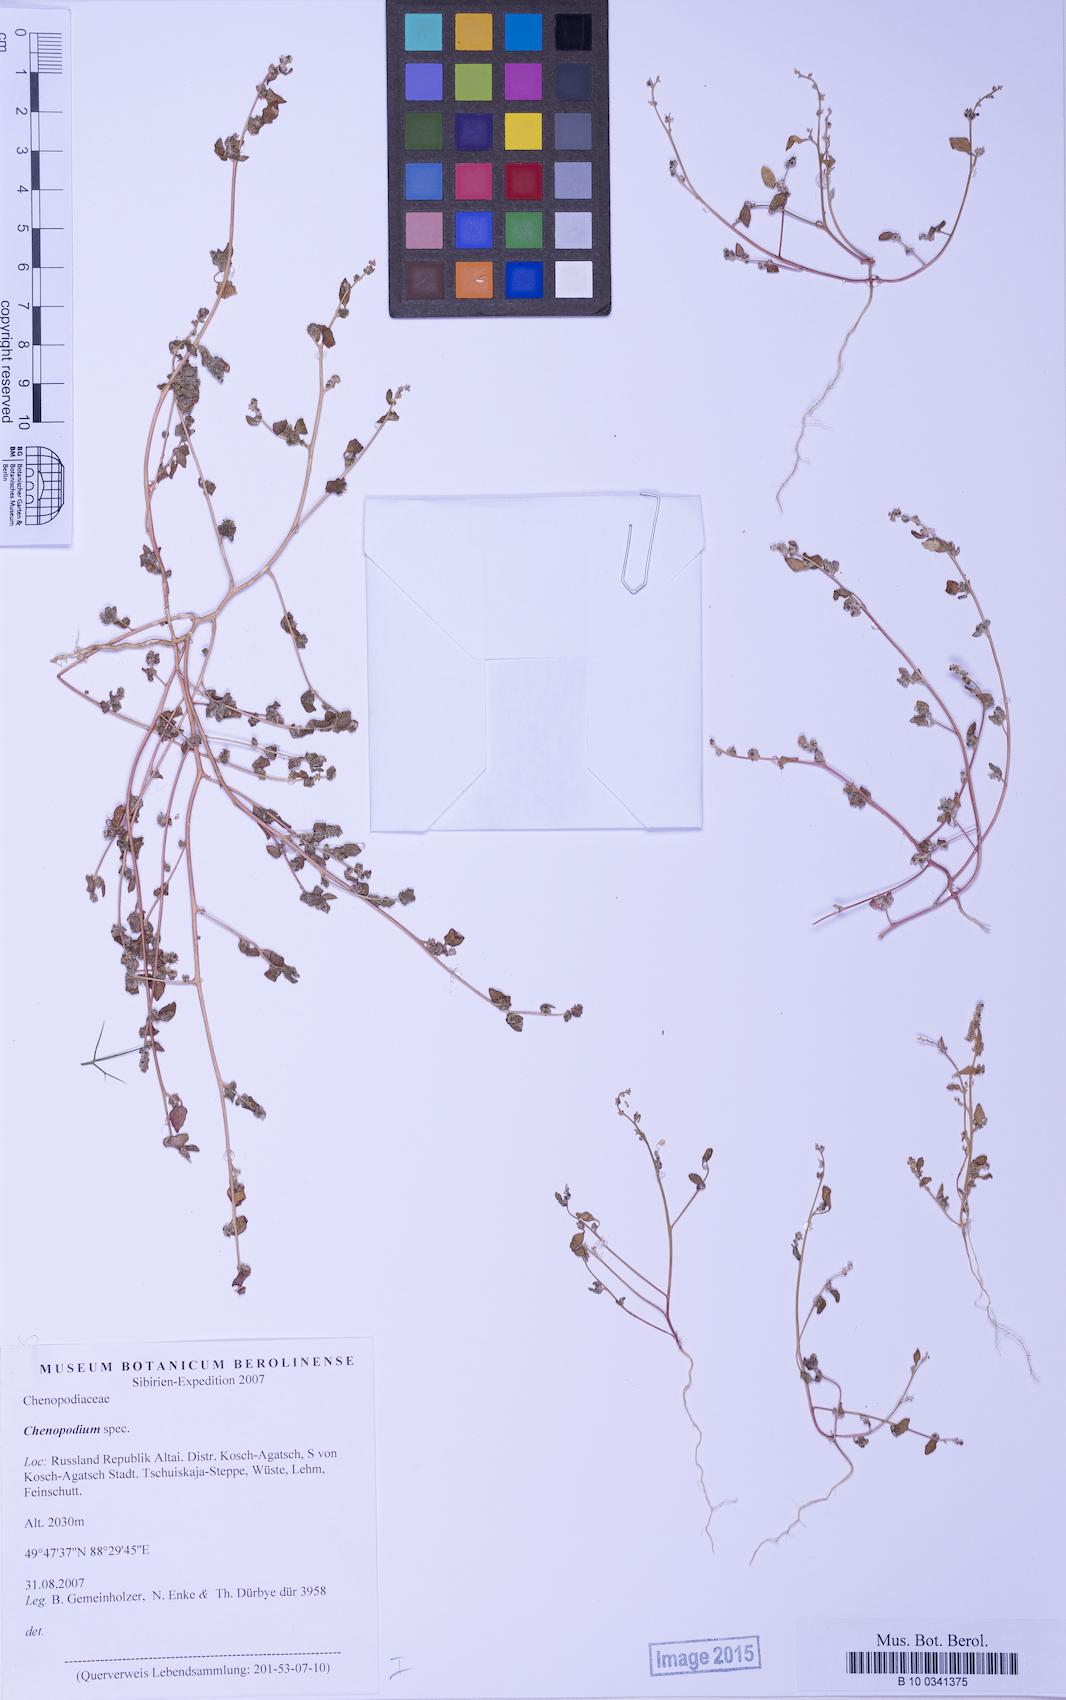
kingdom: Plantae
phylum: Tracheophyta
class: Magnoliopsida
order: Caryophyllales
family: Amaranthaceae
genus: Chenopodium
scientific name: Chenopodium pamiricum
